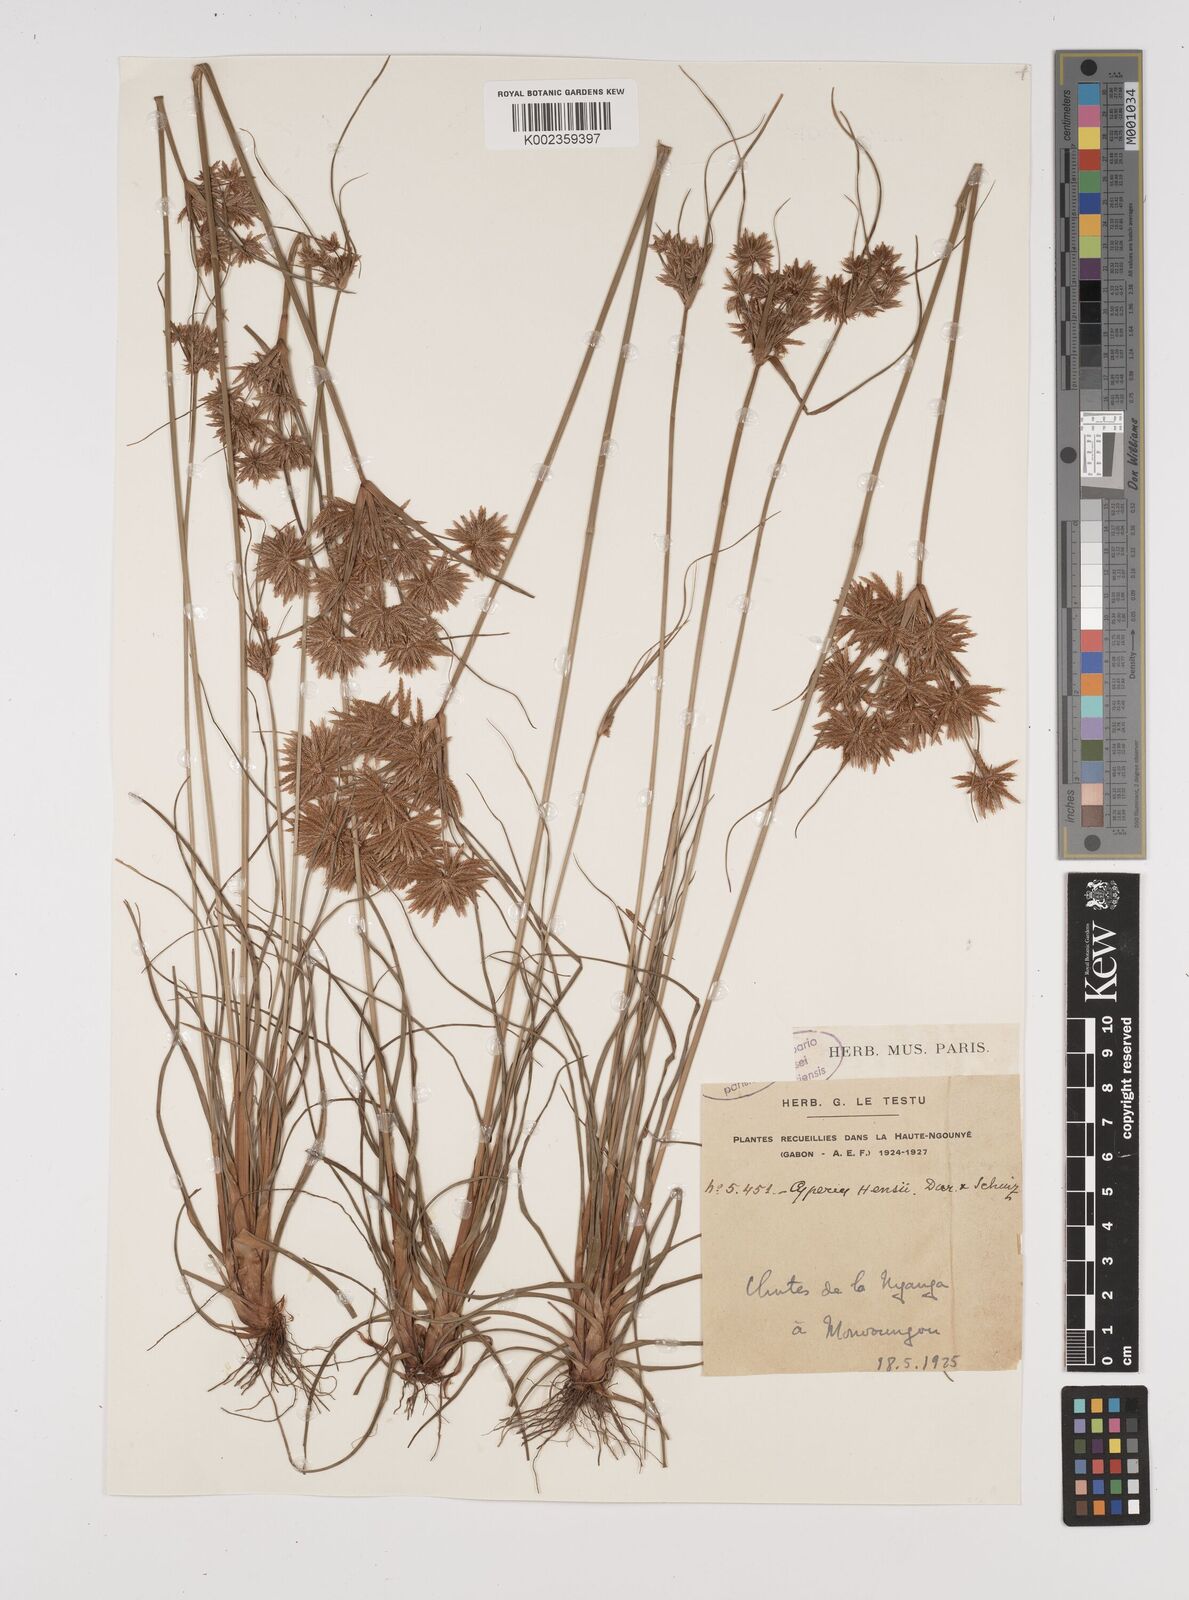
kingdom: Plantae
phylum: Tracheophyta
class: Liliopsida
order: Poales
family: Cyperaceae
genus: Cyperus
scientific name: Cyperus
